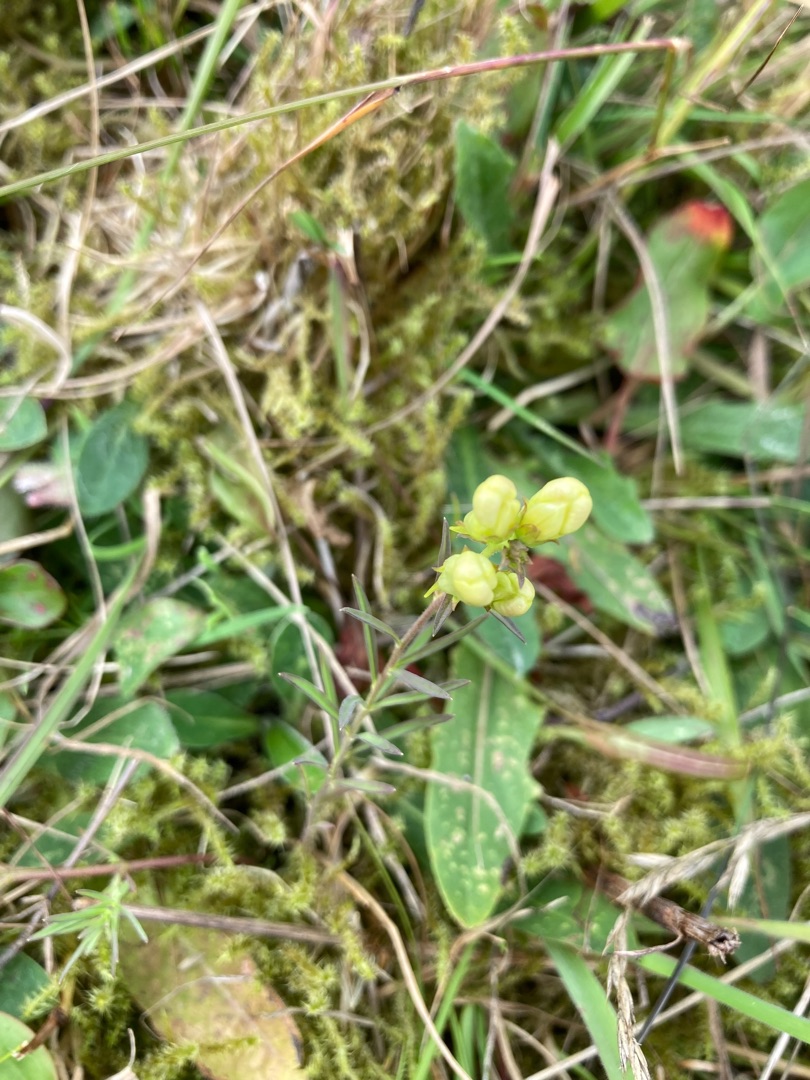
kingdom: Plantae
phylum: Tracheophyta
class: Magnoliopsida
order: Lamiales
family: Plantaginaceae
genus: Linaria
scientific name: Linaria vulgaris
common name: Almindelig torskemund
